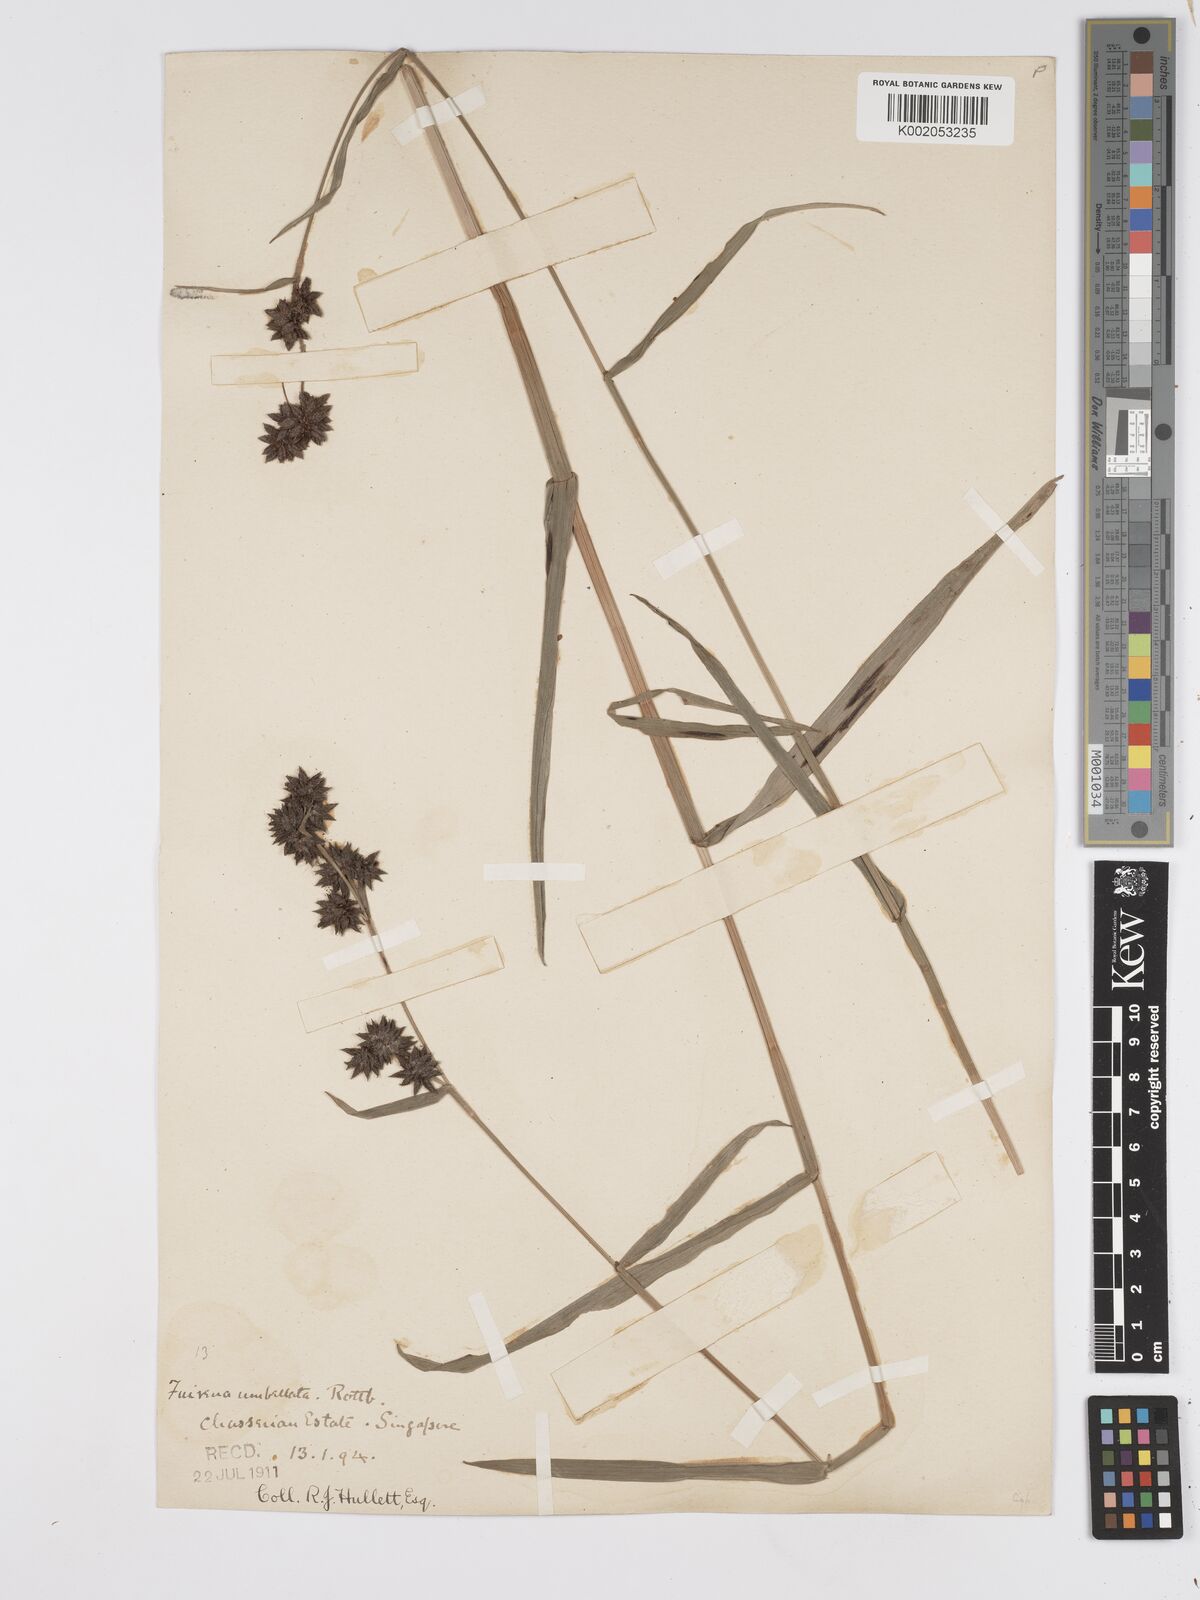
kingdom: Plantae
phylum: Tracheophyta
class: Liliopsida
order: Poales
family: Cyperaceae
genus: Fuirena
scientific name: Fuirena umbellata
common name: Yefen
